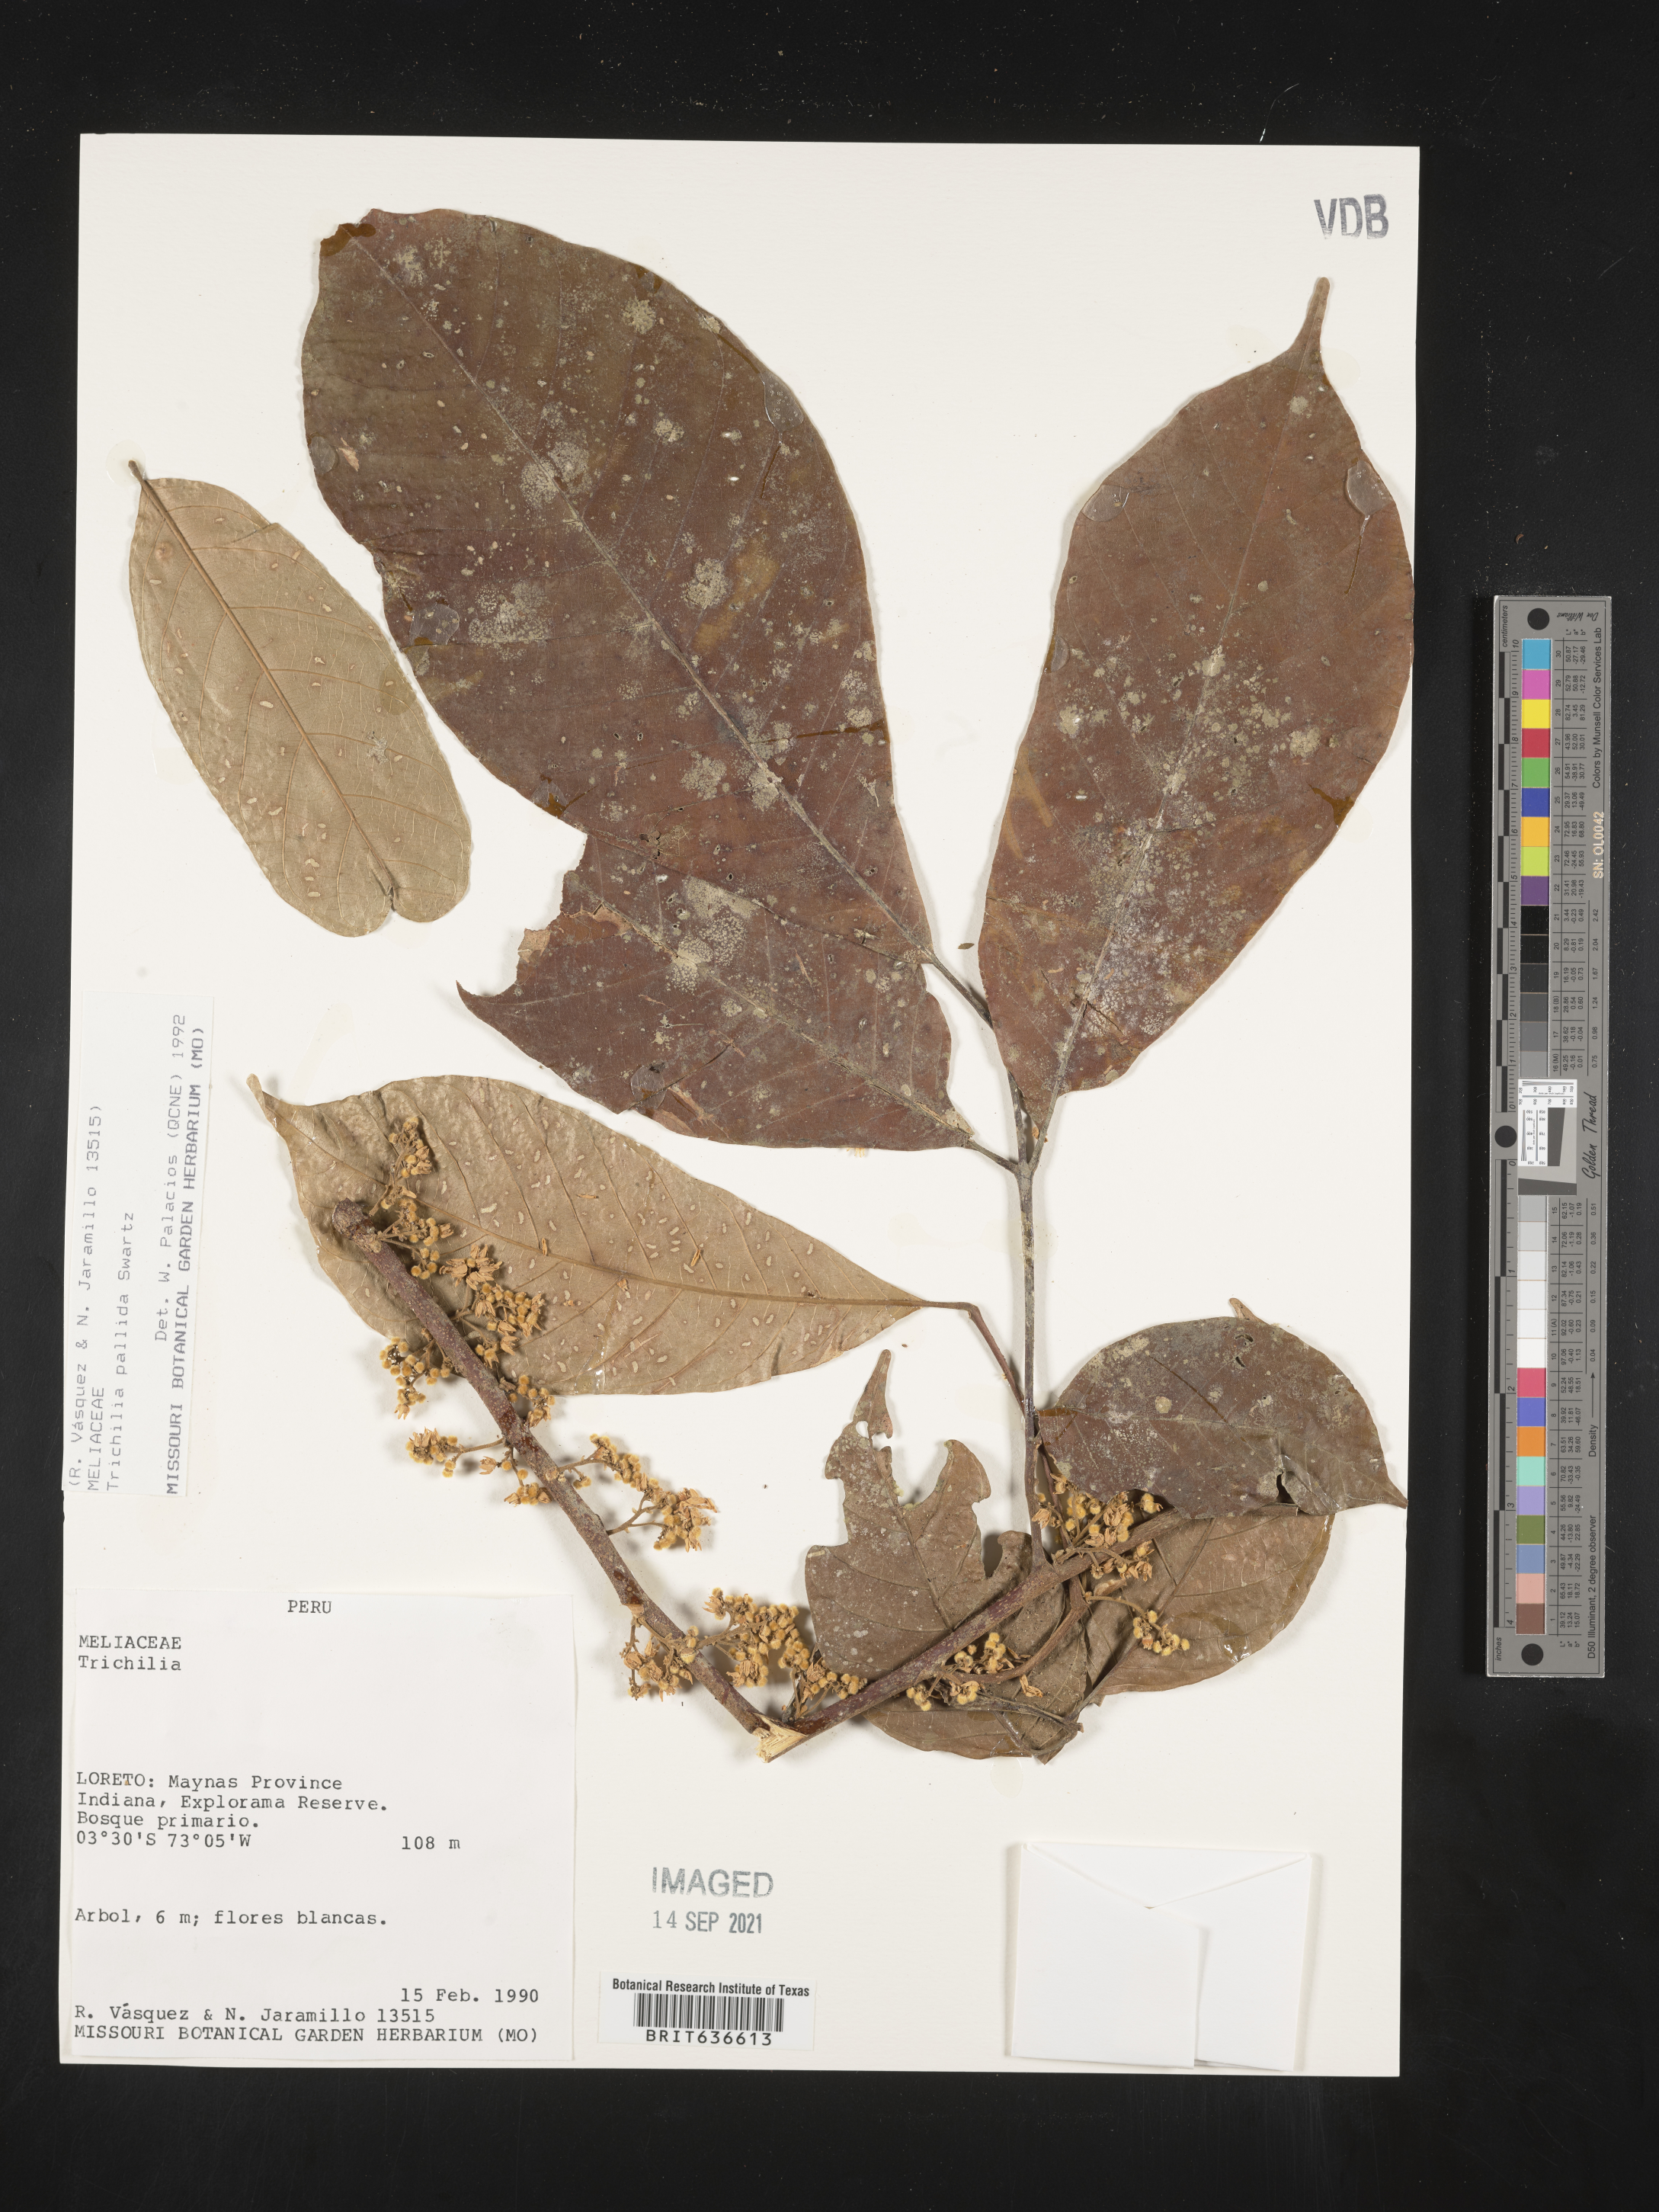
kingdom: Plantae
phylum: Tracheophyta
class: Magnoliopsida
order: Sapindales
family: Meliaceae
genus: Trichilia
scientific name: Trichilia
